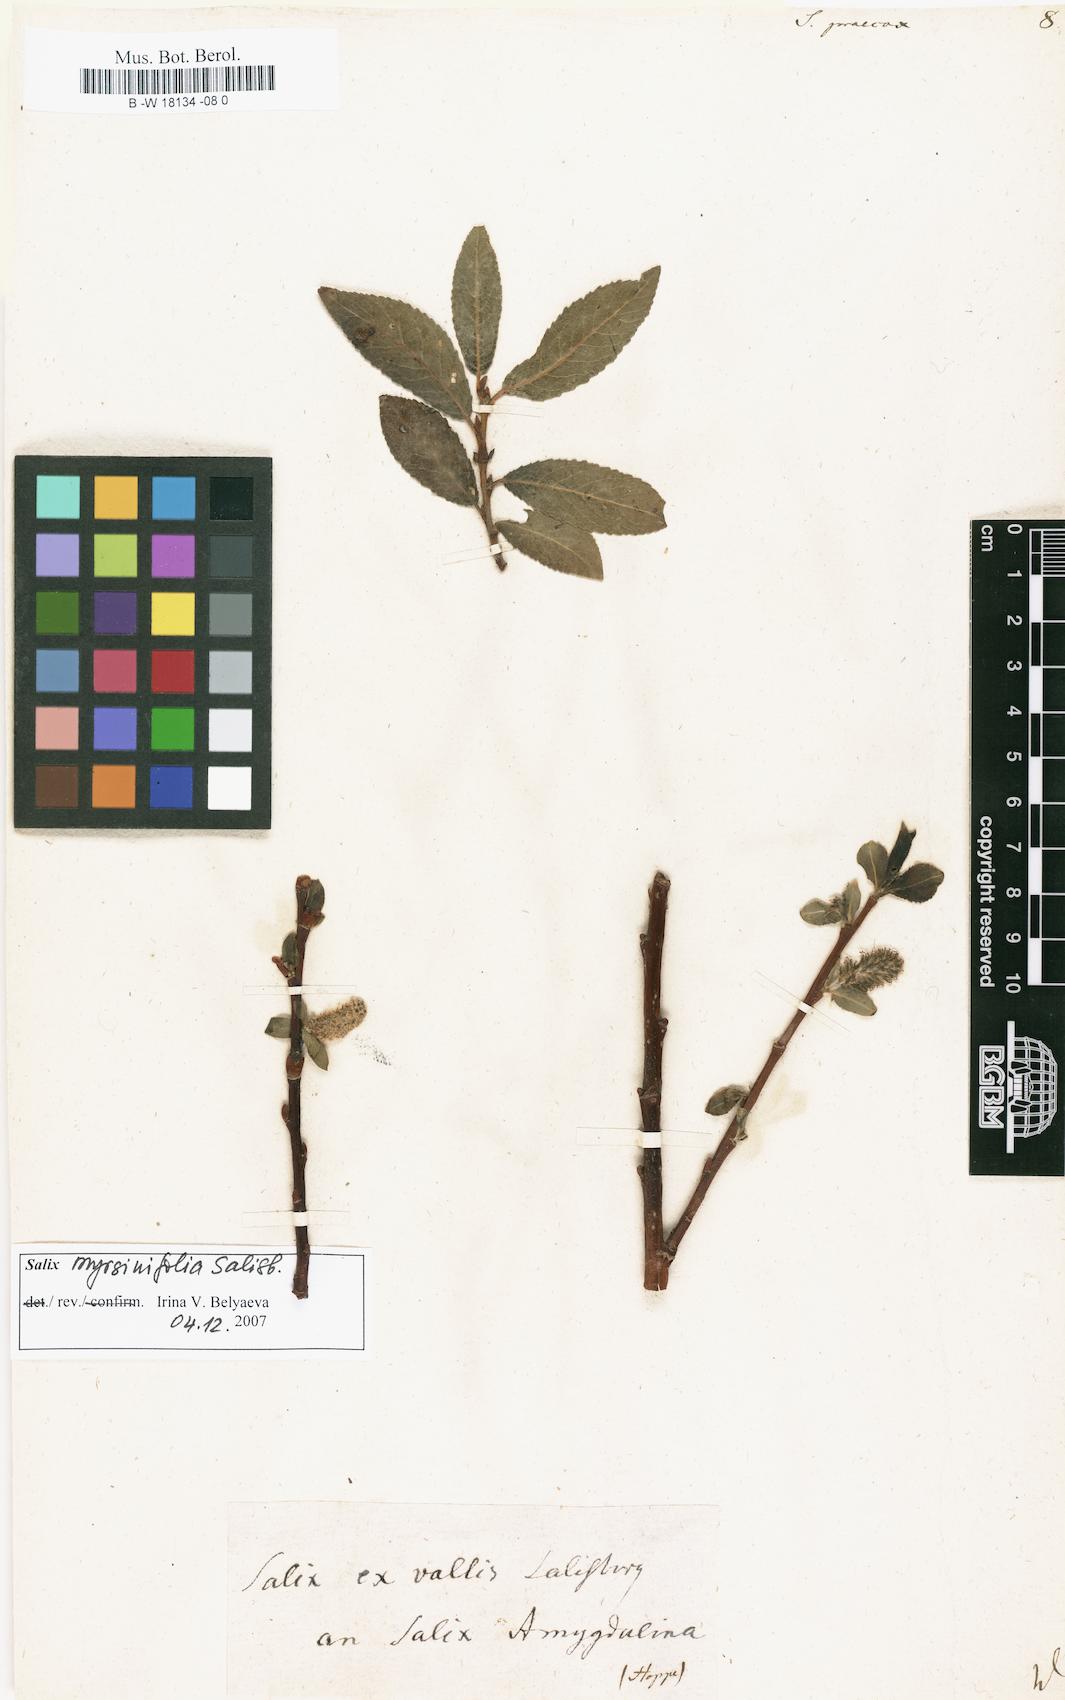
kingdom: Plantae
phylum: Tracheophyta
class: Magnoliopsida
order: Malpighiales
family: Salicaceae
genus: Salix
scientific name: Salix
